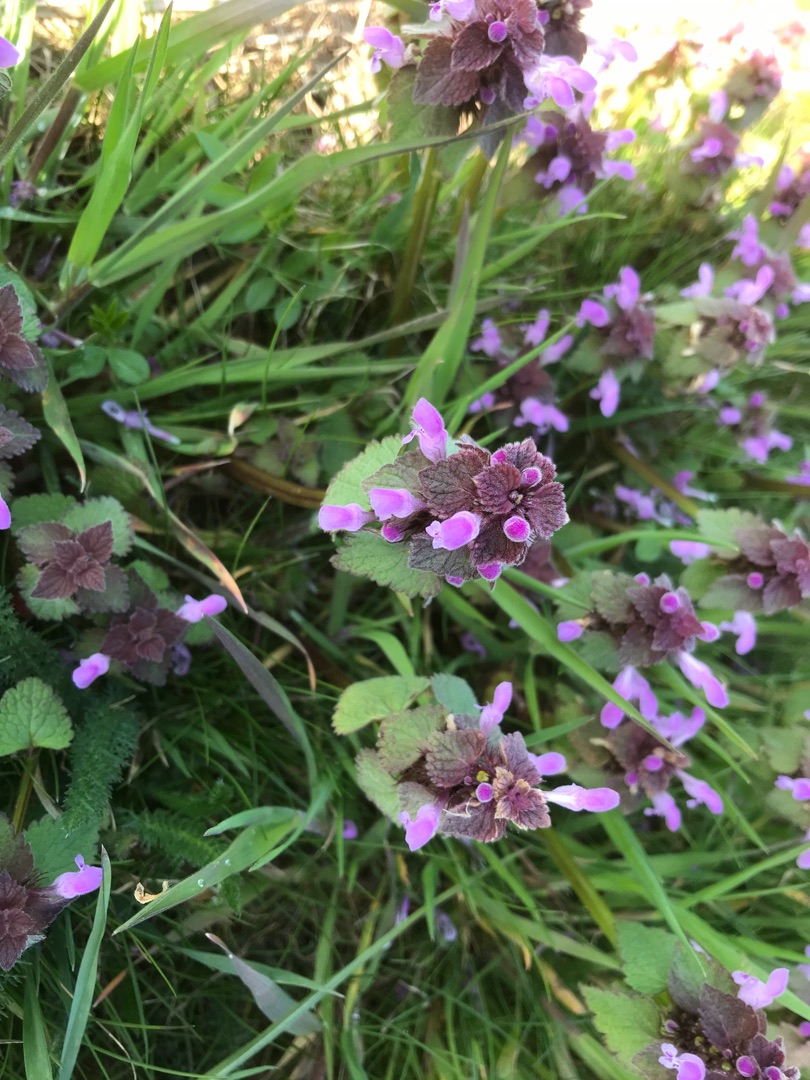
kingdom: Plantae
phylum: Tracheophyta
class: Magnoliopsida
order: Lamiales
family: Lamiaceae
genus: Lamium
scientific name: Lamium purpureum
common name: Rød tvetand
